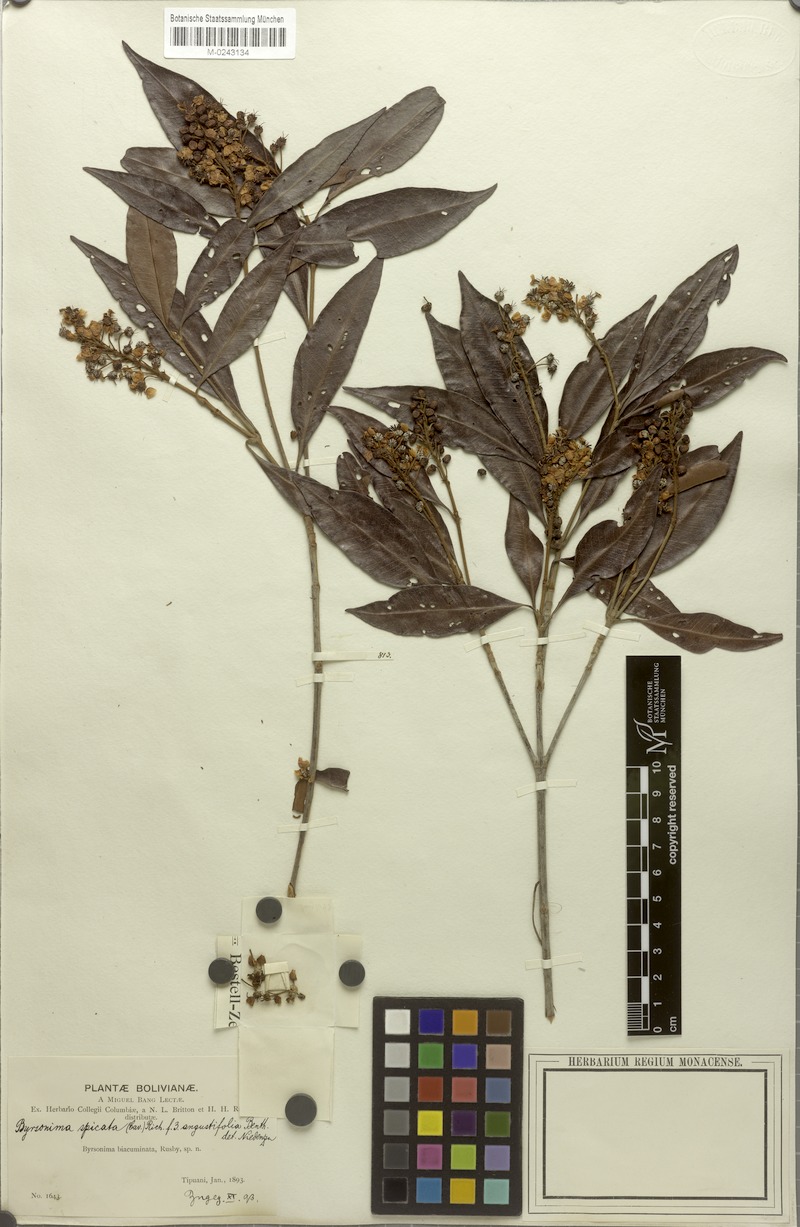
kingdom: Plantae
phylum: Tracheophyta
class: Magnoliopsida
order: Malpighiales
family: Malpighiaceae
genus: Byrsonima
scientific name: Byrsonima spicata
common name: Murixi-bark-tree
